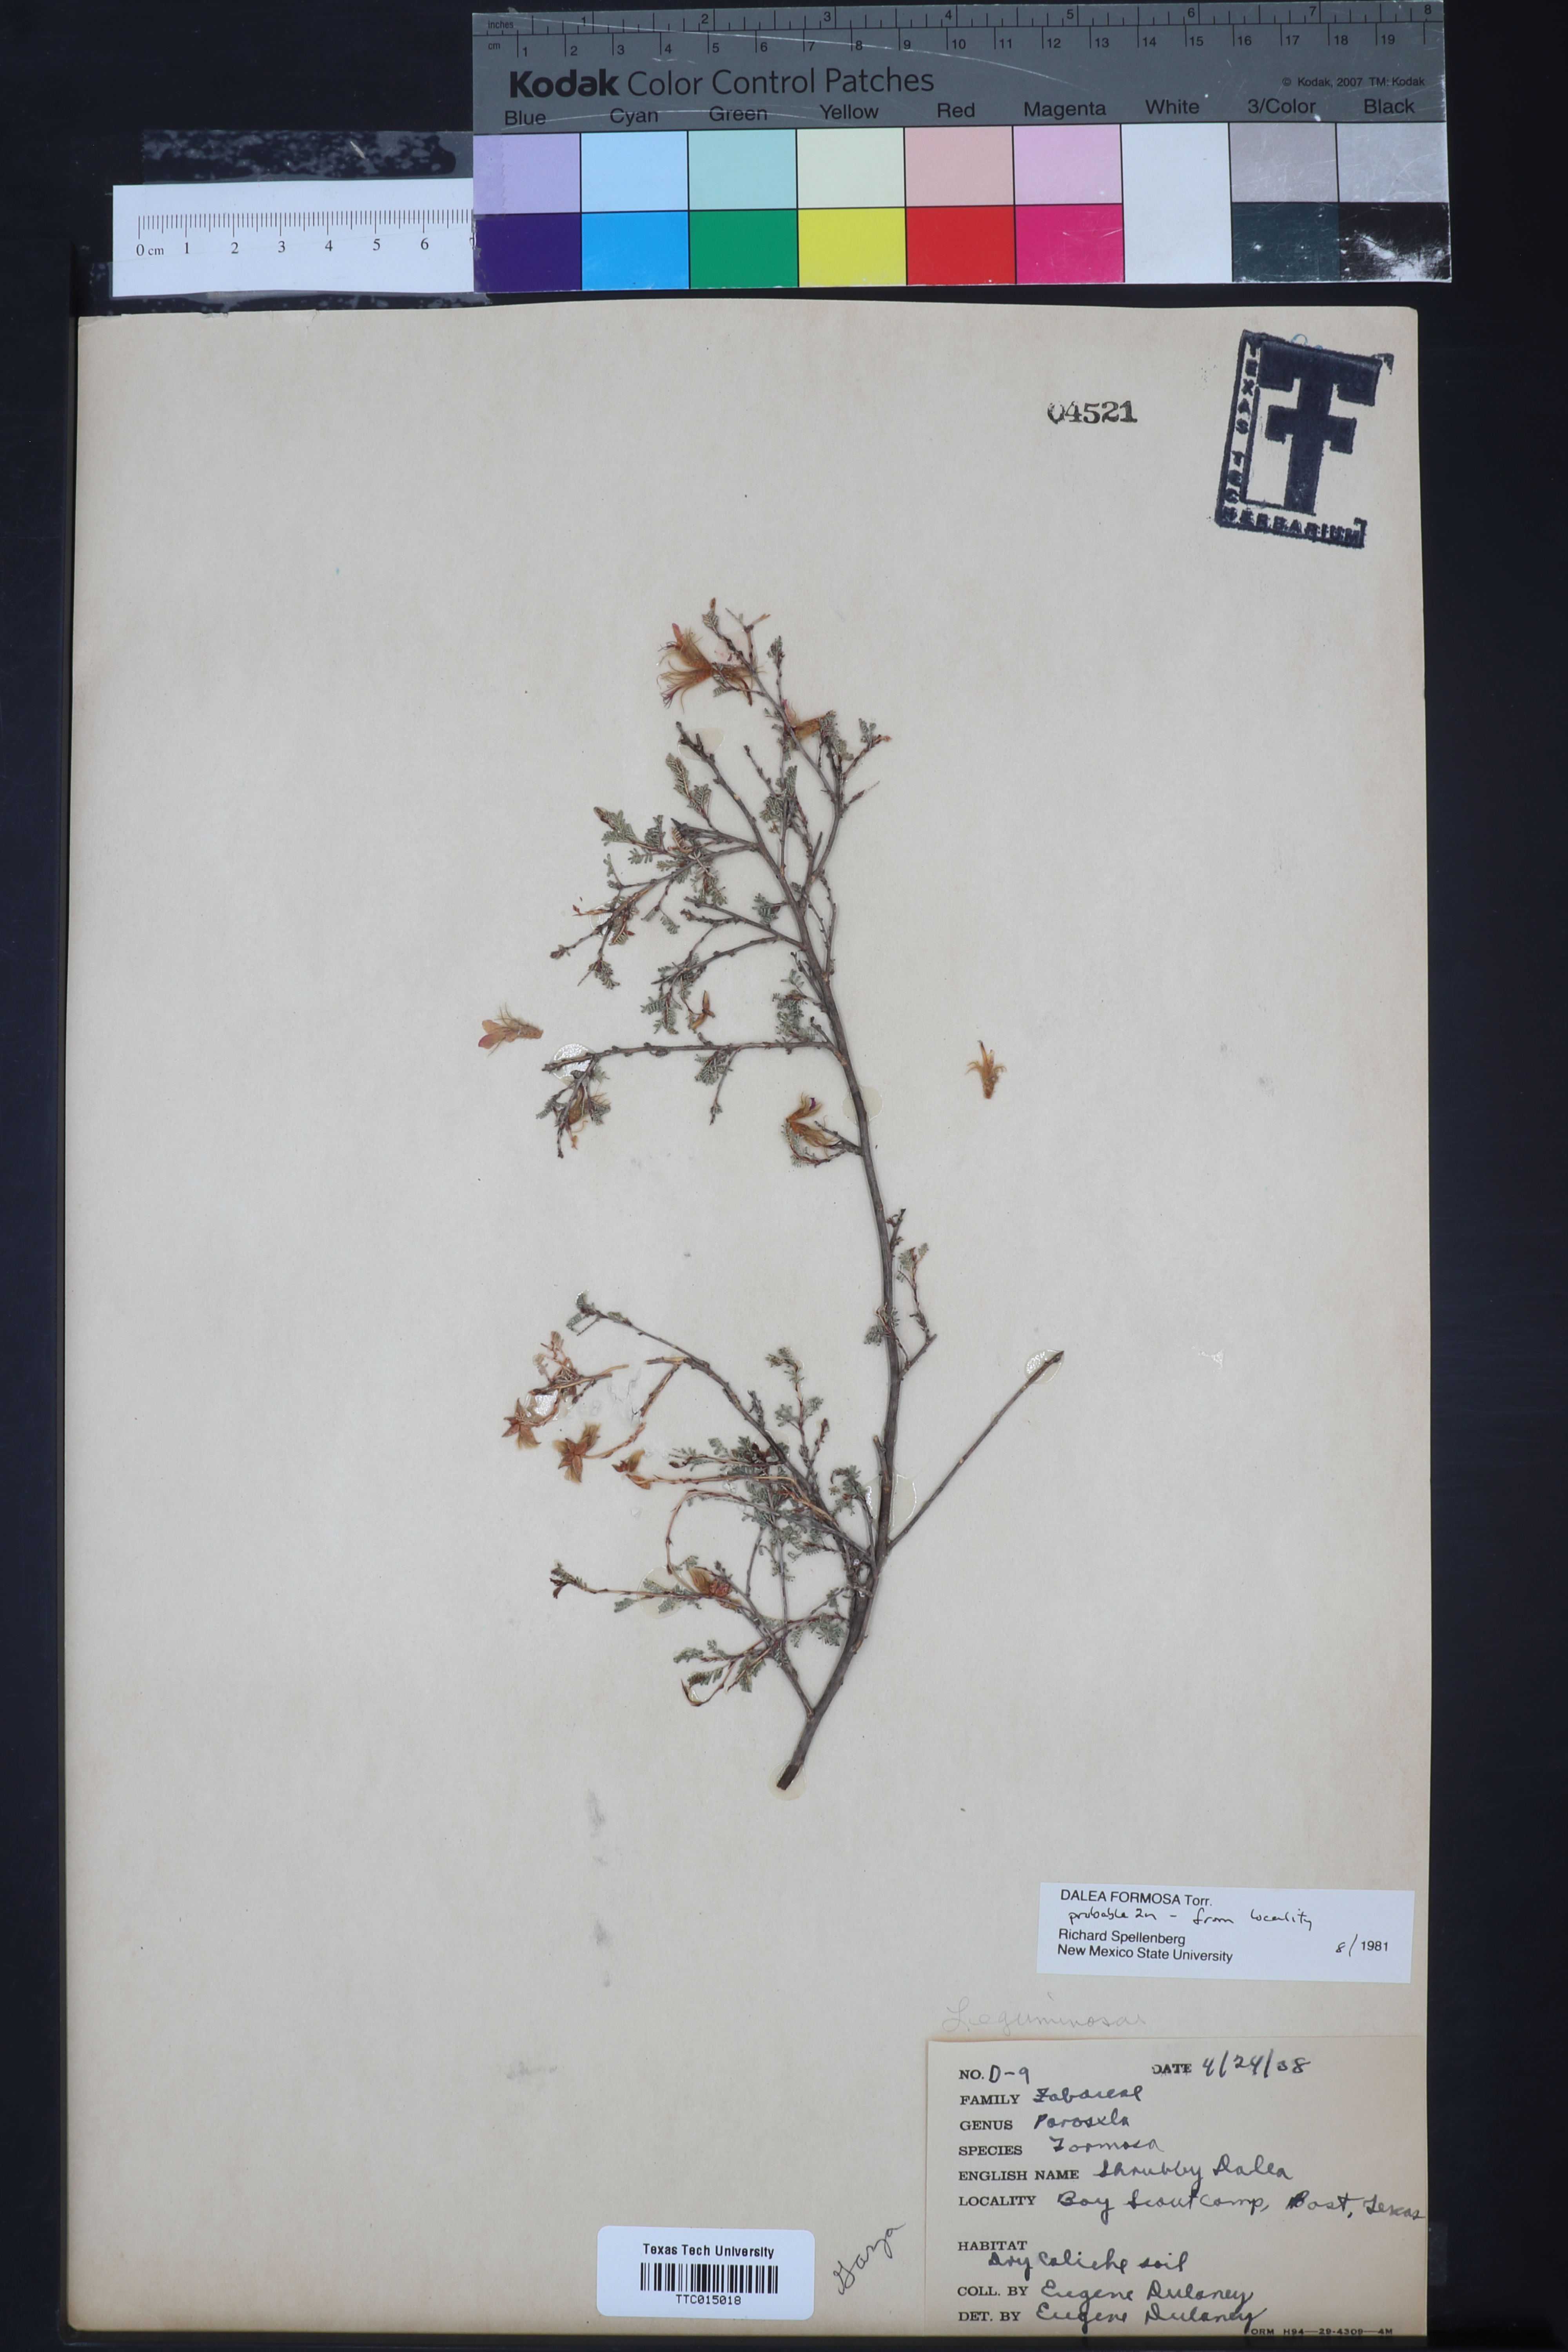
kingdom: Plantae
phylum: Tracheophyta
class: Magnoliopsida
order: Fabales
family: Fabaceae
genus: Dalea
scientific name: Dalea formosa
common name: Feather-plume dalea
